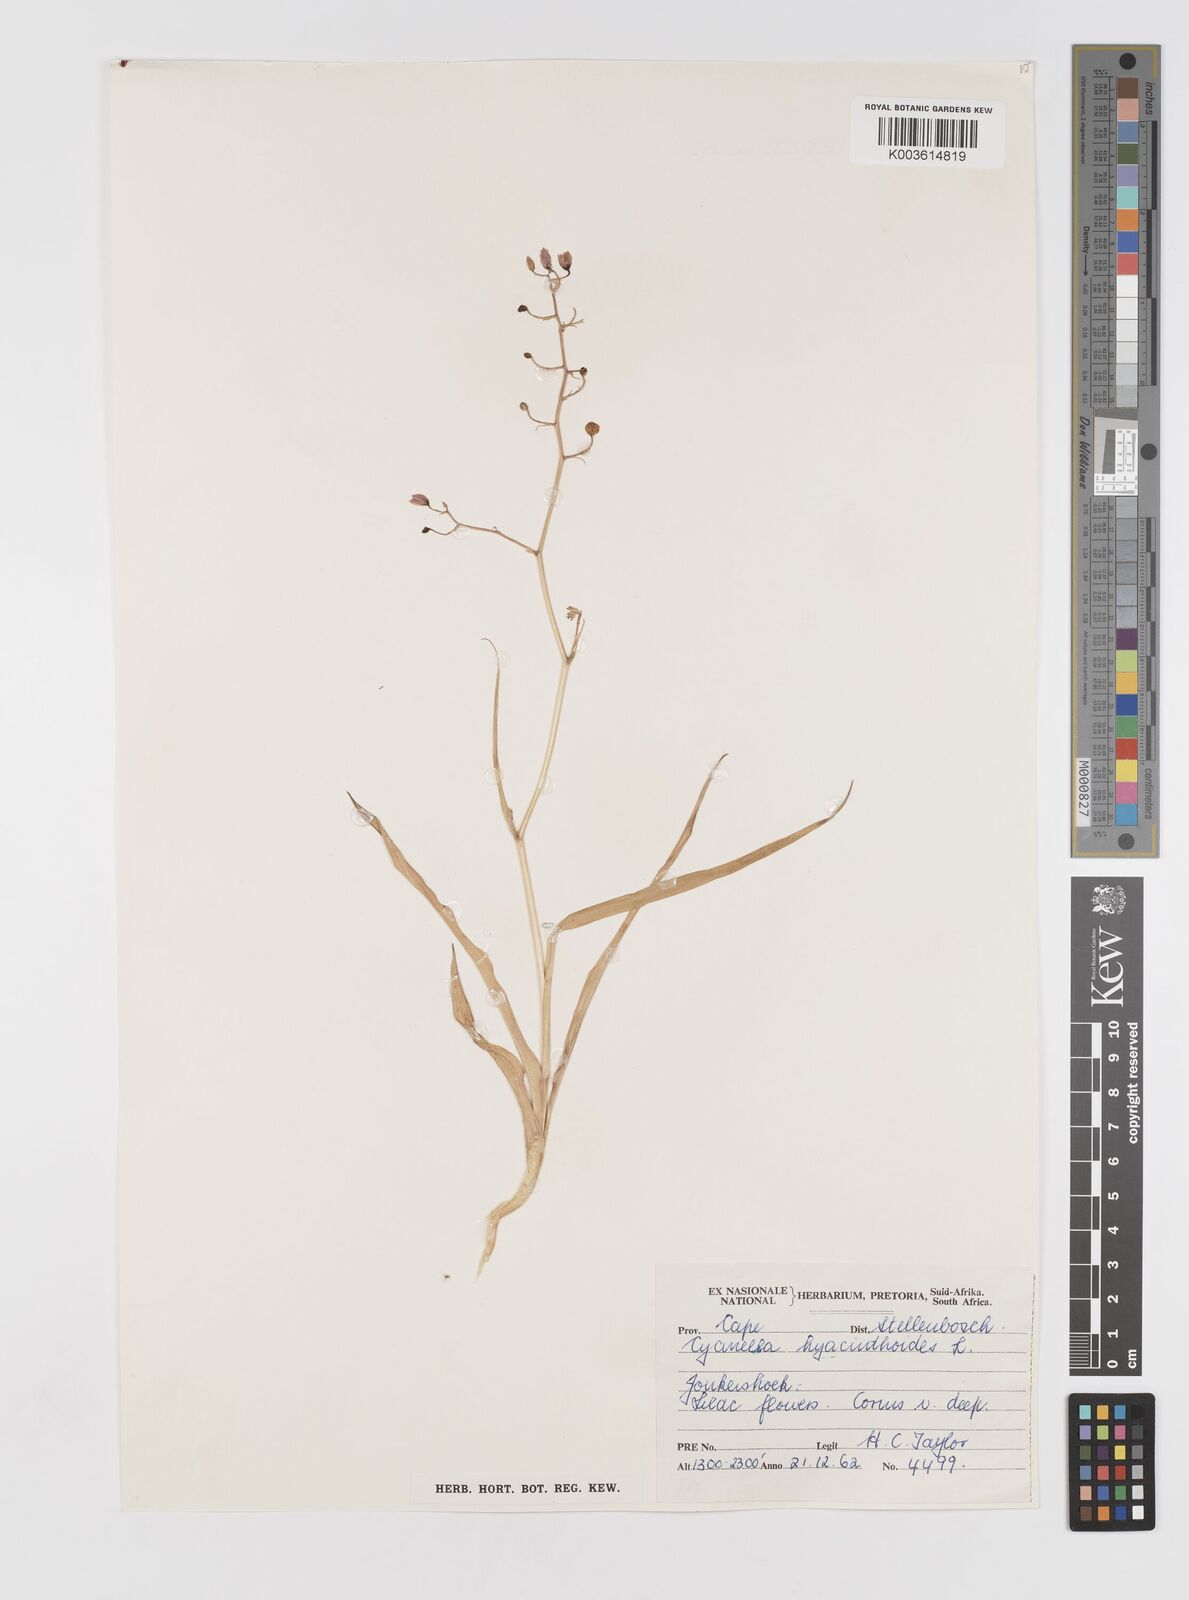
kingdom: Plantae
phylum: Tracheophyta
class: Liliopsida
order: Asparagales
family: Tecophilaeaceae
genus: Cyanella
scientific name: Cyanella hyacinthoides
